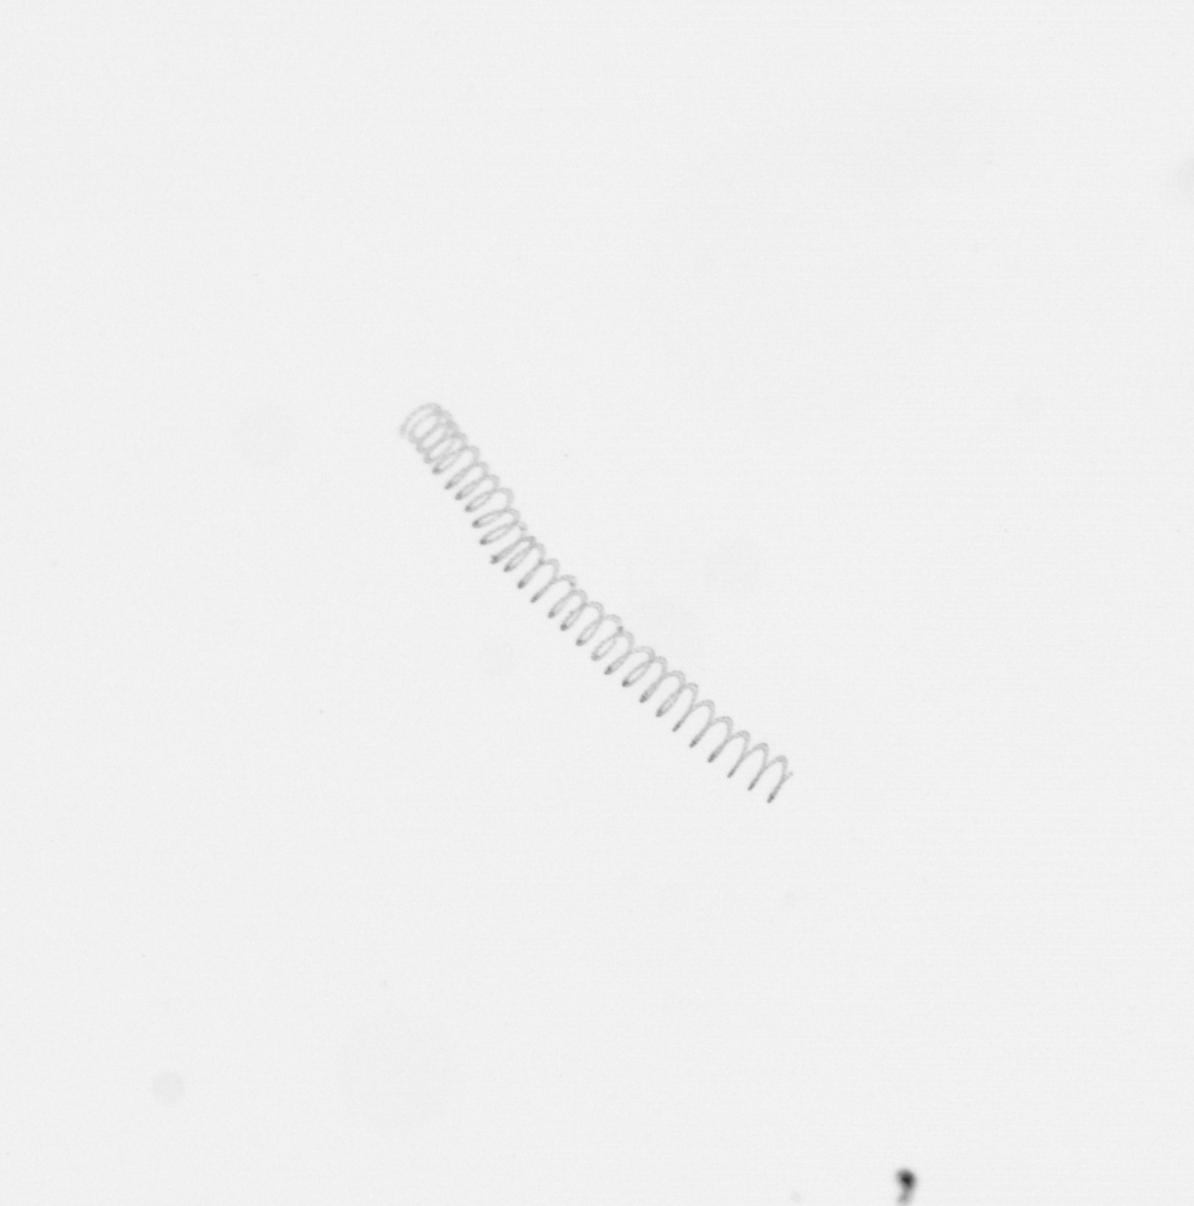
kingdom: Chromista
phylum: Ochrophyta
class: Bacillariophyceae
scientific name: Bacillariophyceae
